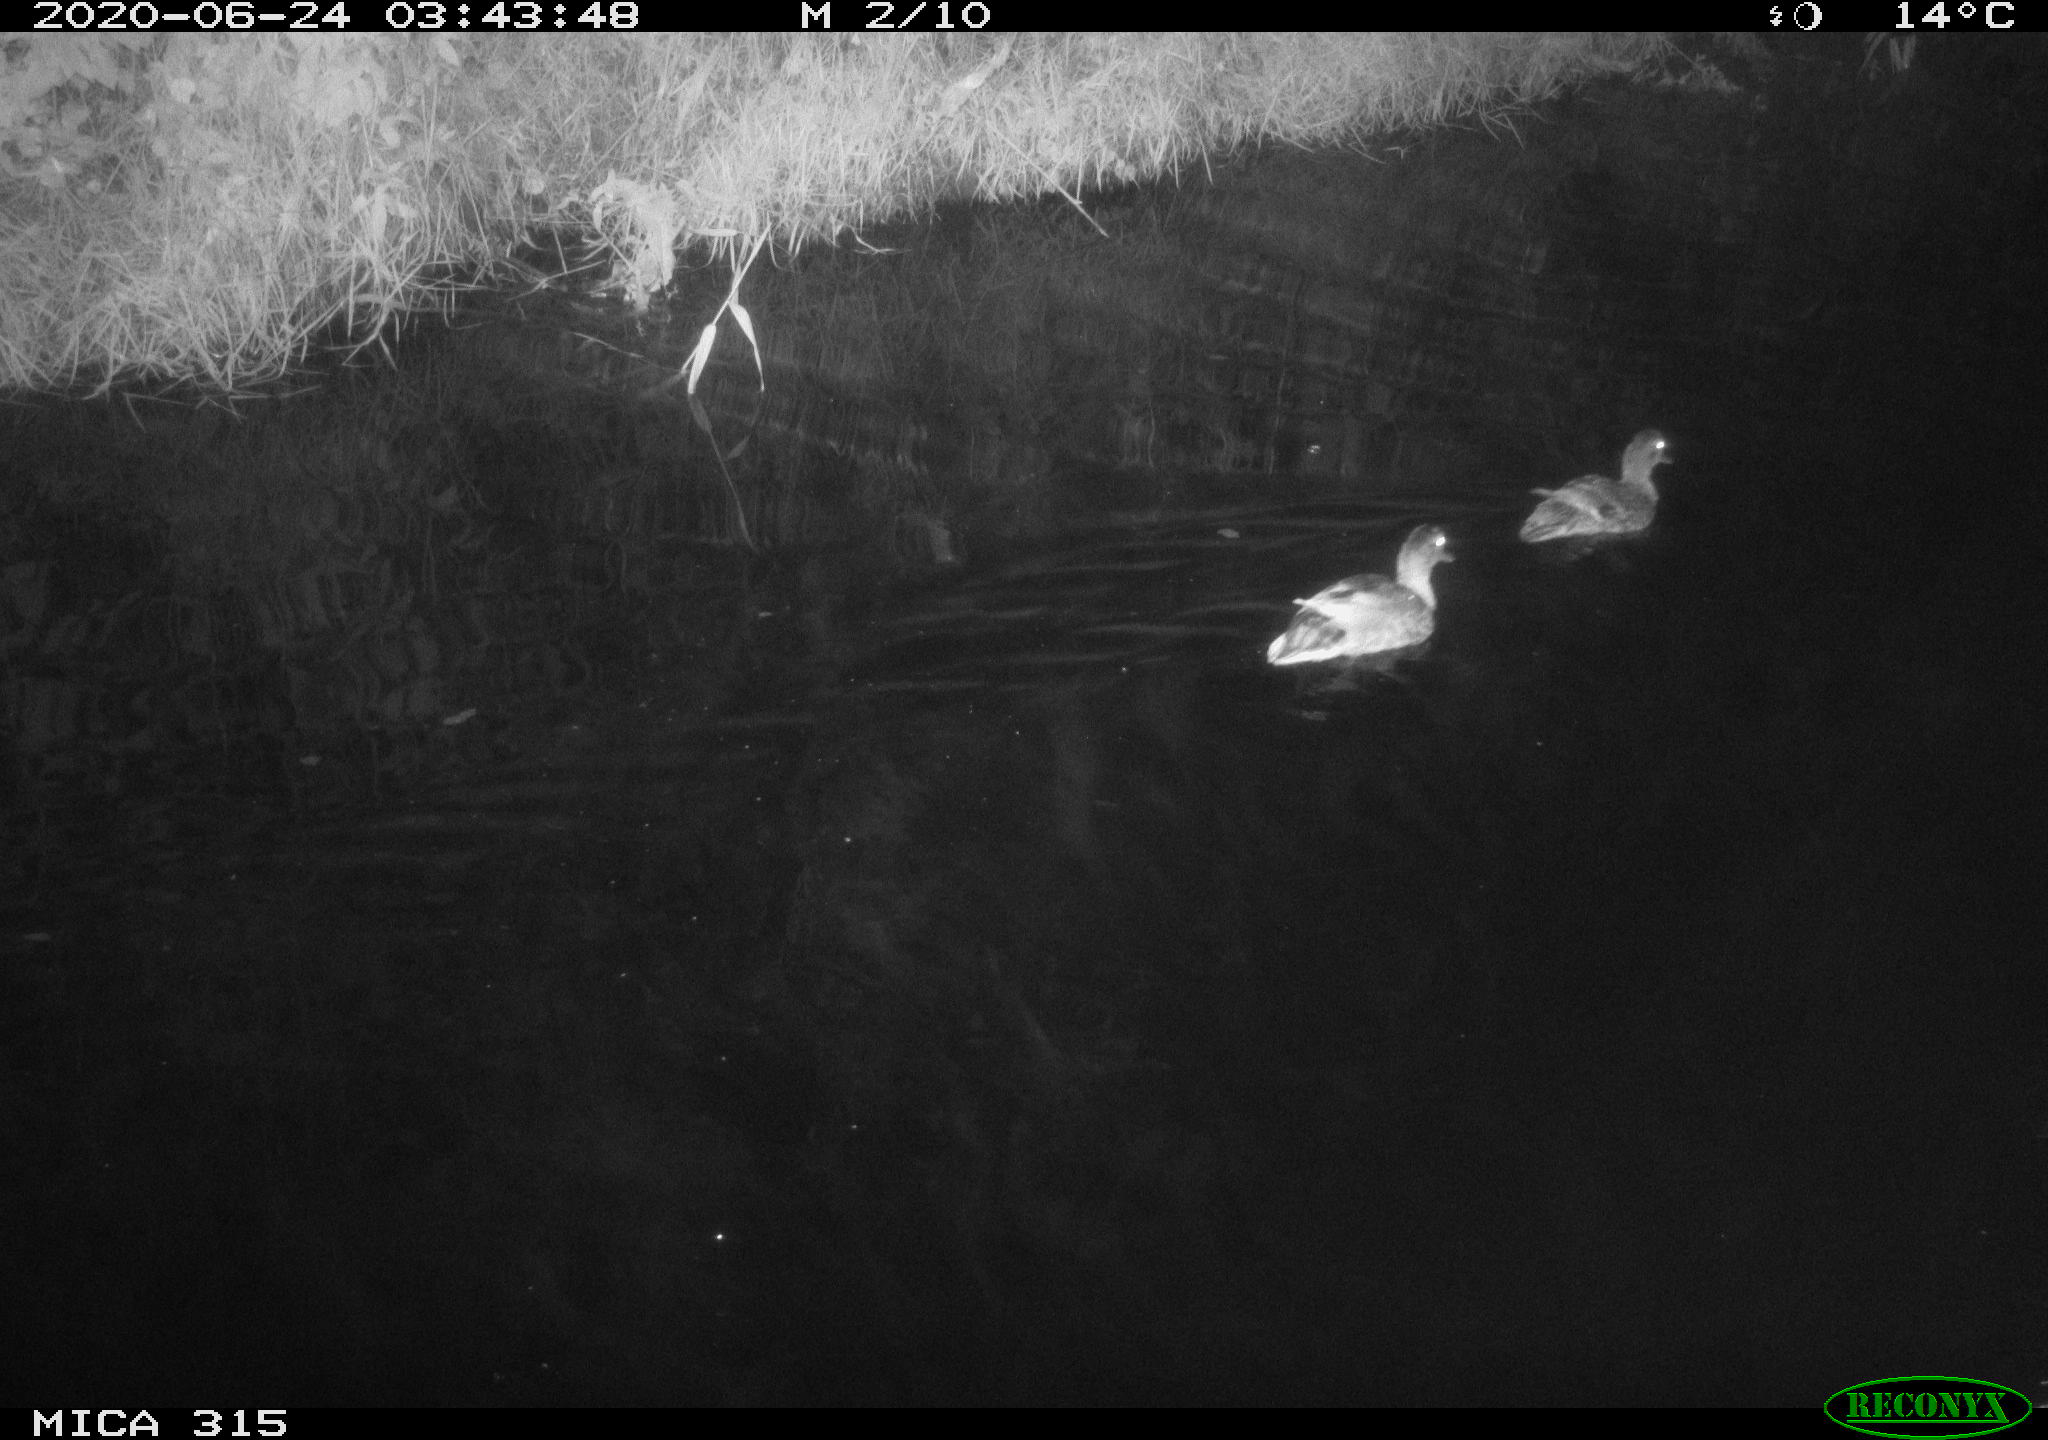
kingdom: Animalia
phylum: Chordata
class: Aves
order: Anseriformes
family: Anatidae
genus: Anas
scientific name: Anas platyrhynchos
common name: Mallard
